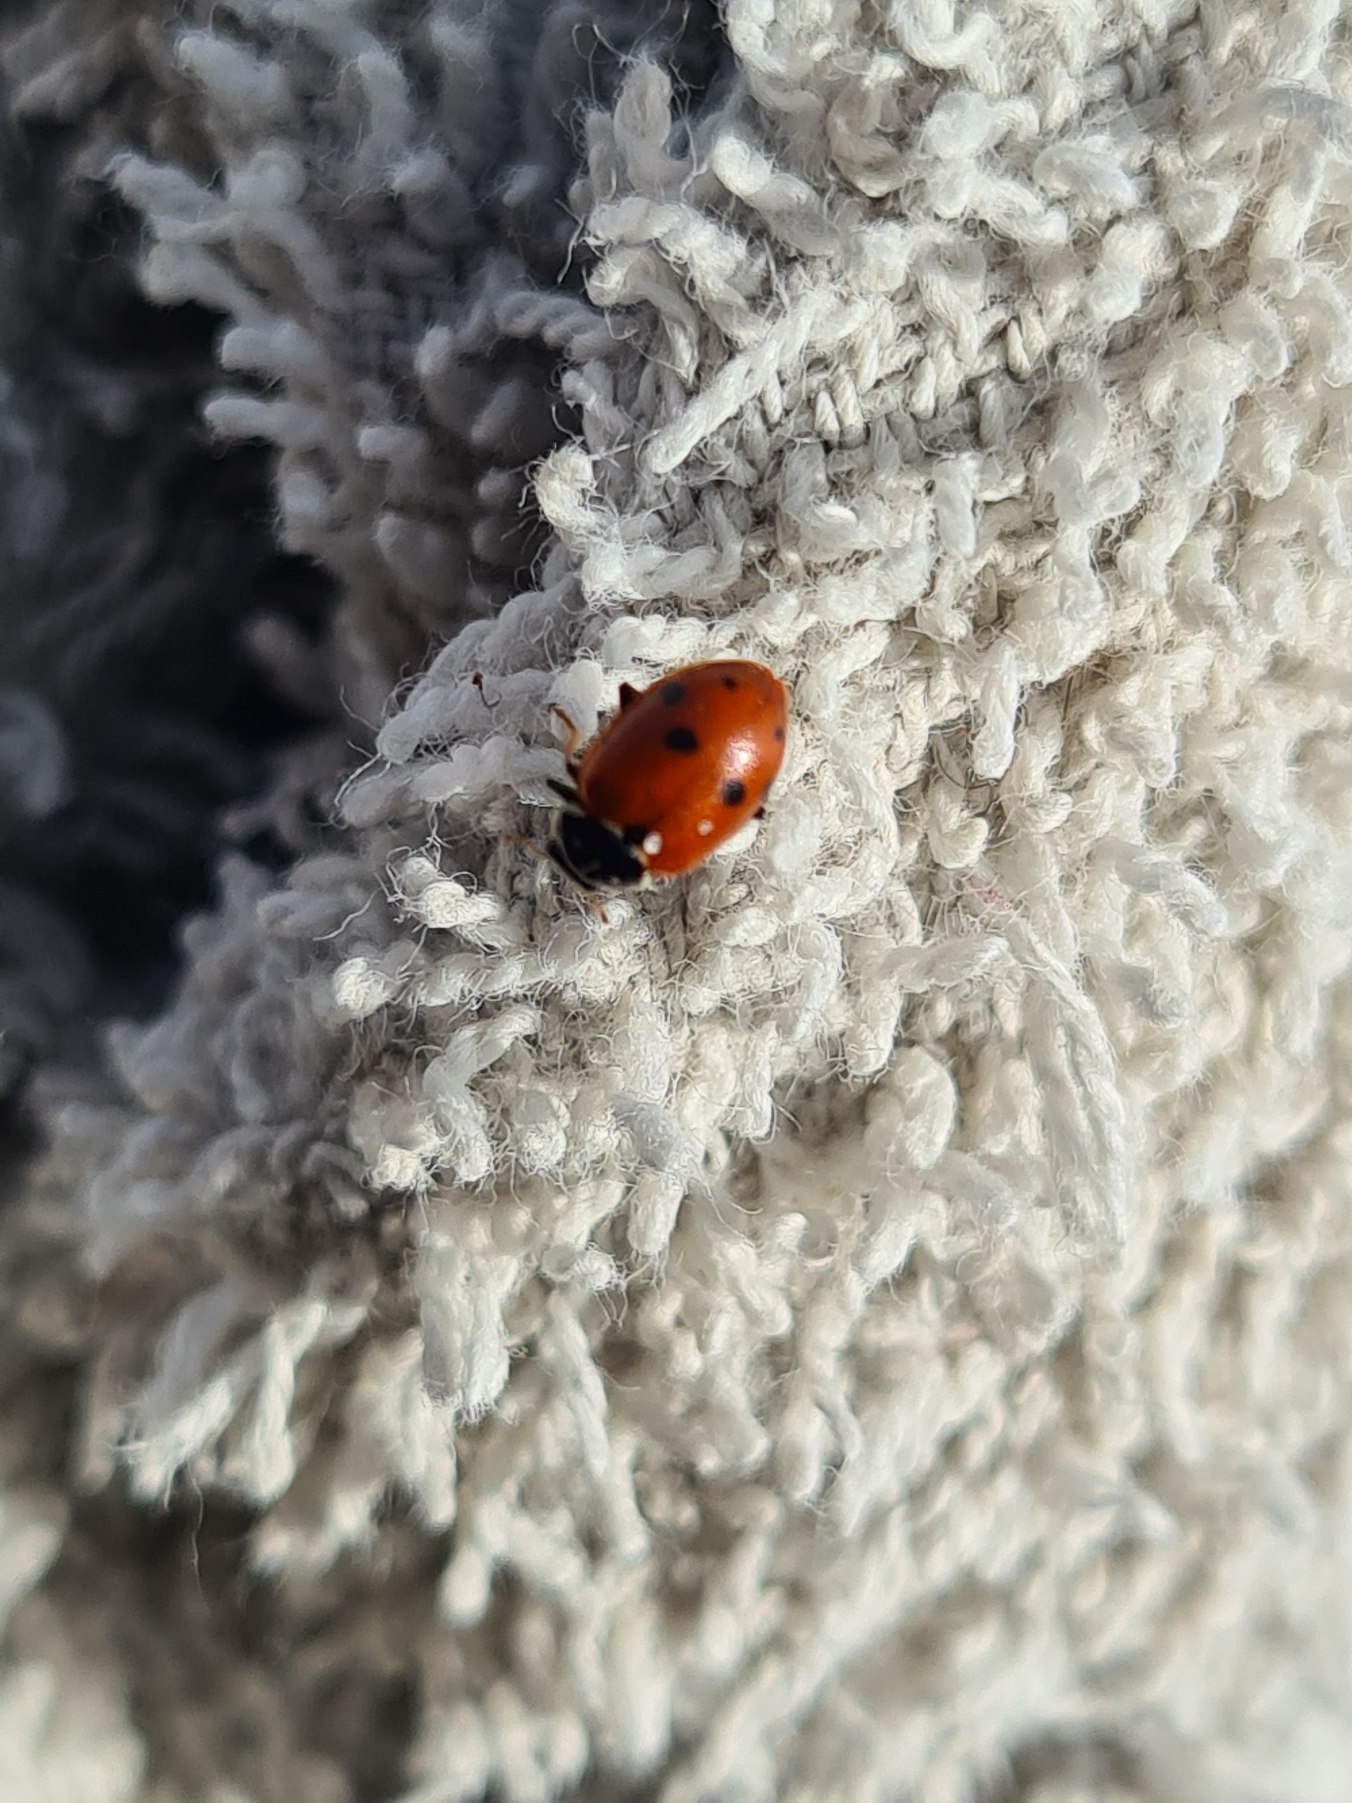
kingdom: Animalia
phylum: Arthropoda
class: Insecta
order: Coleoptera
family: Coccinellidae
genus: Hippodamia
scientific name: Hippodamia variegata
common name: Adonis' mariehøne
